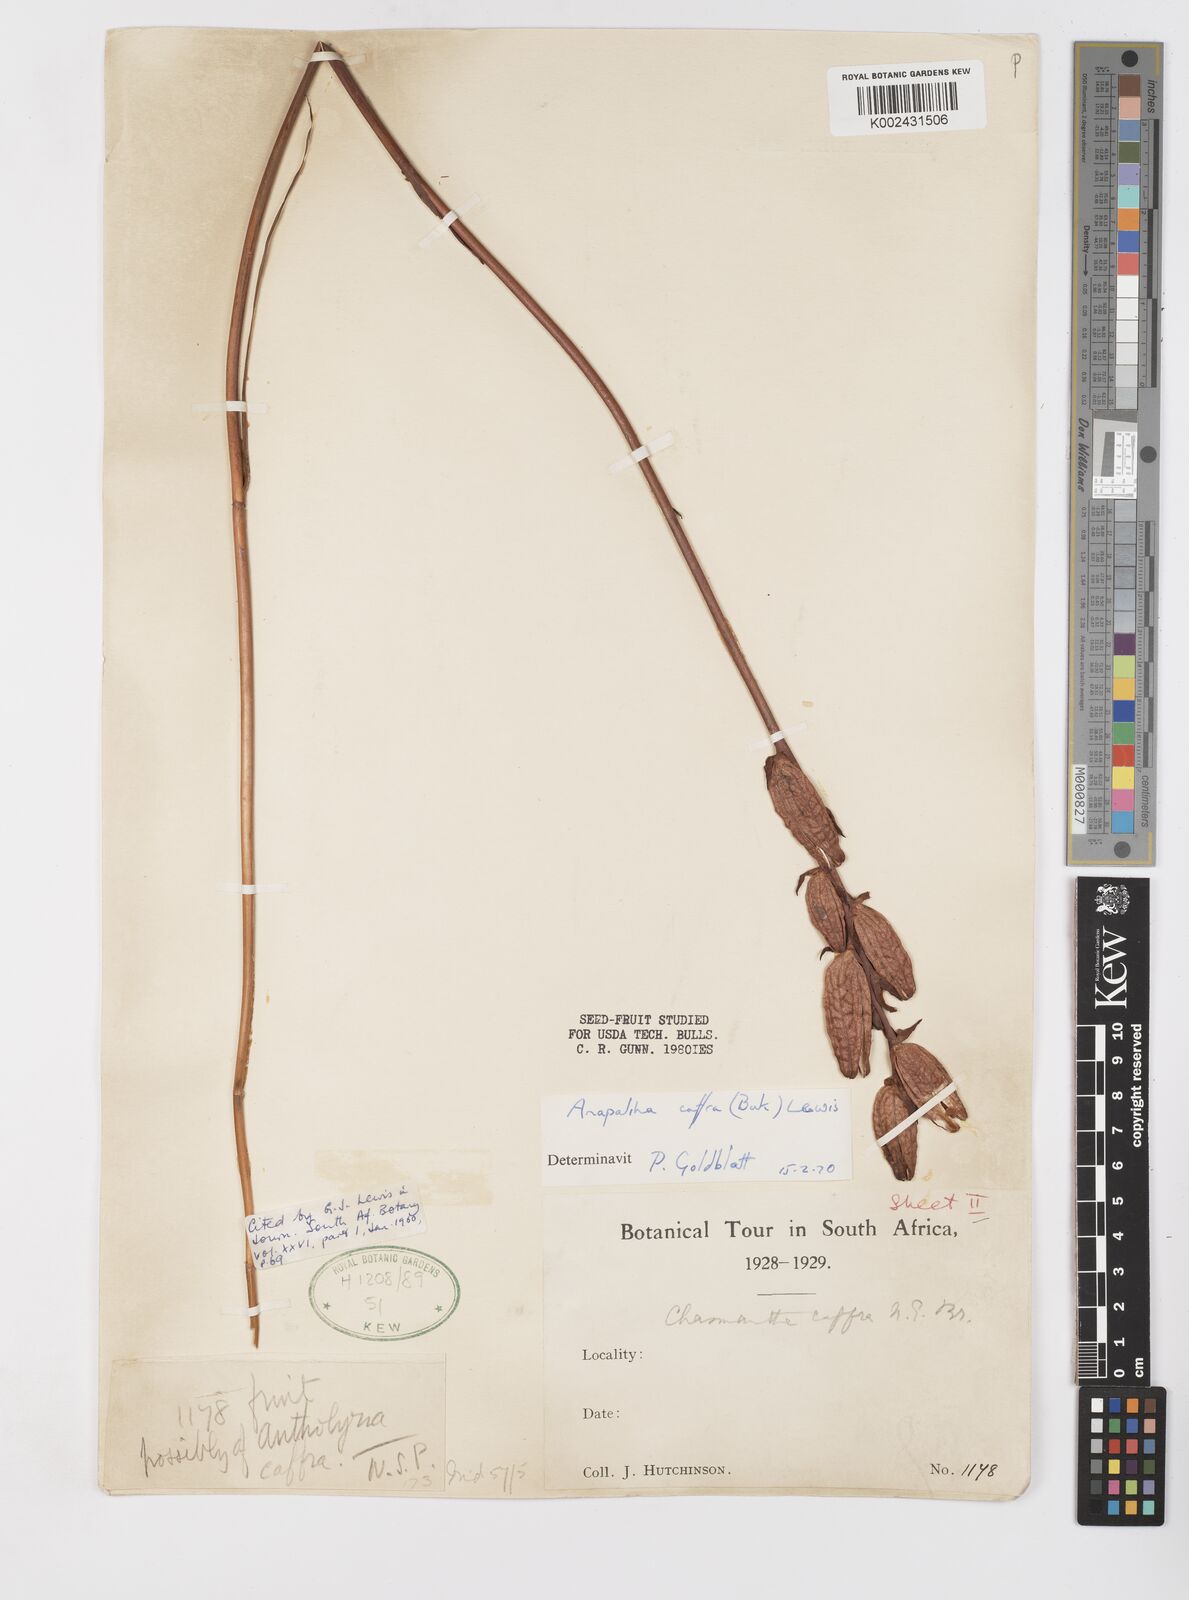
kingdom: Plantae
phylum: Tracheophyta
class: Liliopsida
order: Asparagales
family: Iridaceae
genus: Tritoniopsis
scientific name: Tritoniopsis caffra
